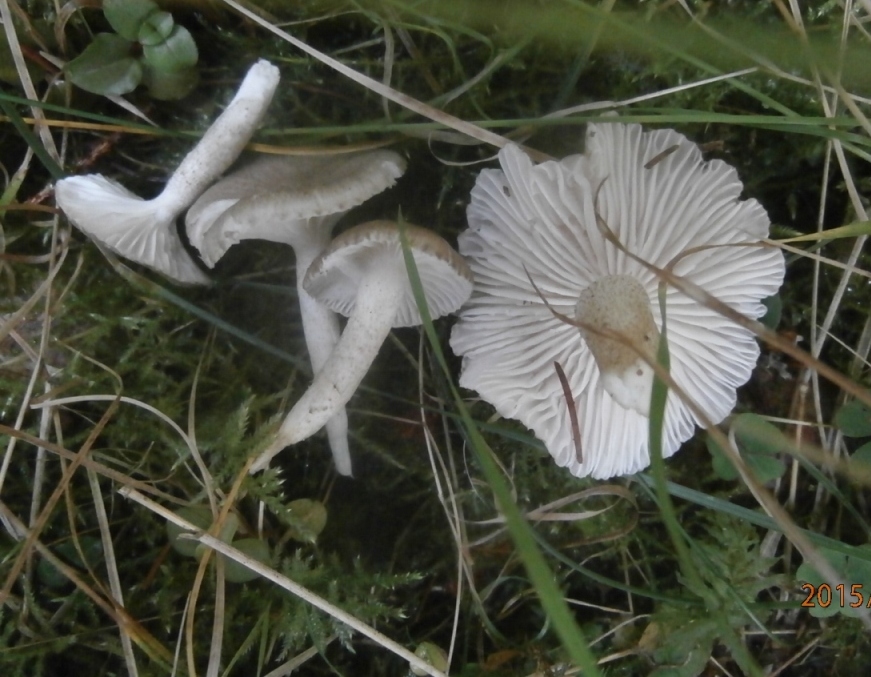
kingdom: Fungi
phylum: Basidiomycota
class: Agaricomycetes
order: Agaricales
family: Hygrophoraceae
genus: Hygrophorus
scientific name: Hygrophorus pustulatus
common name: mørkprikket sneglehat
